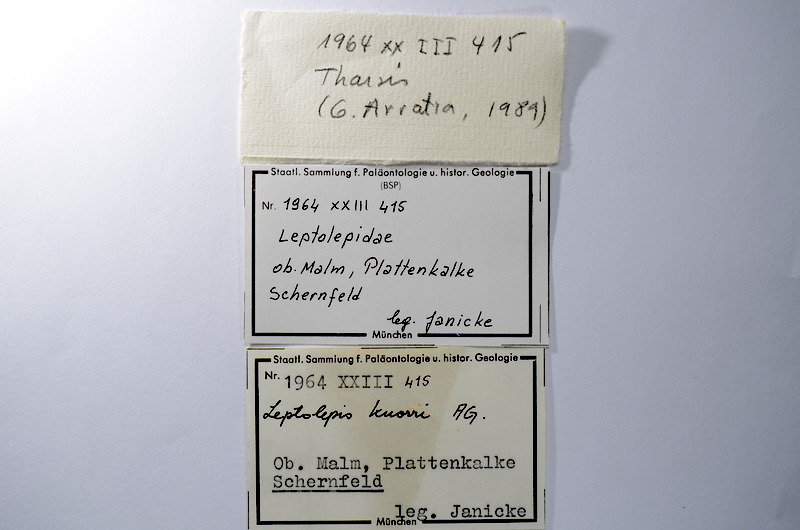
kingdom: Animalia
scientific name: Animalia
